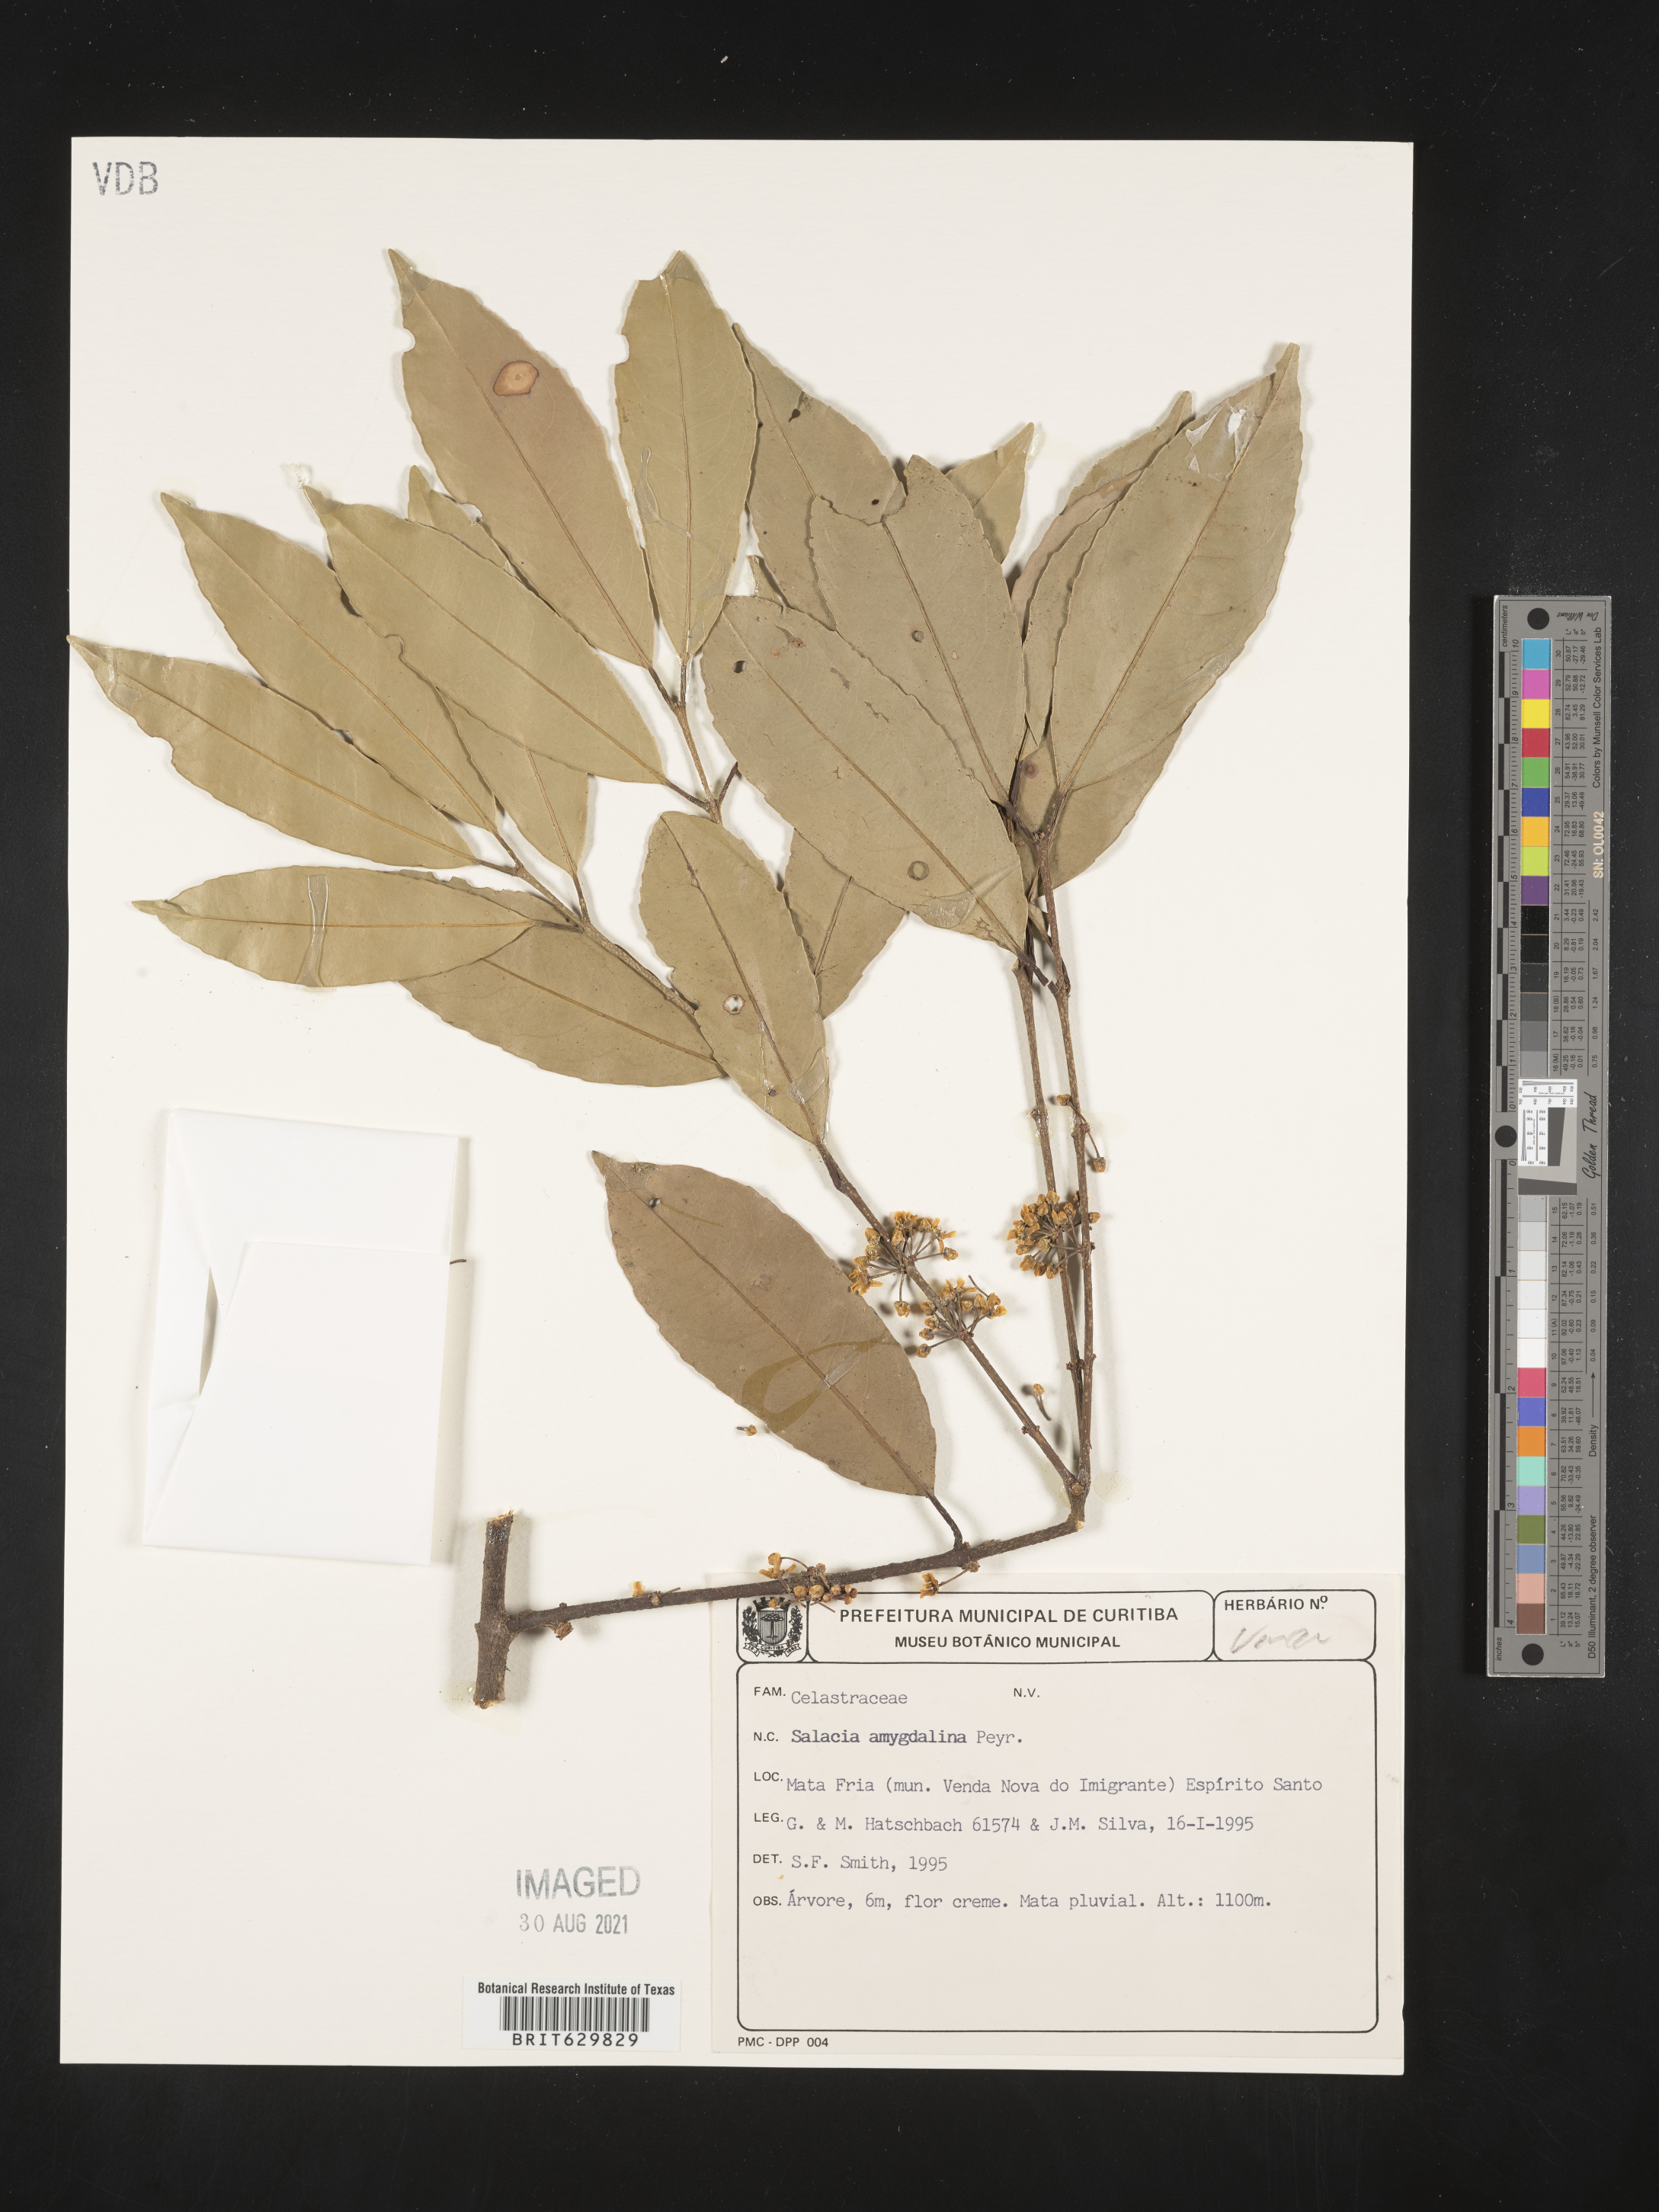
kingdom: Plantae
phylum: Tracheophyta
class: Magnoliopsida
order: Celastrales
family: Celastraceae
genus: Salacia
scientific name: Salacia elliptica
